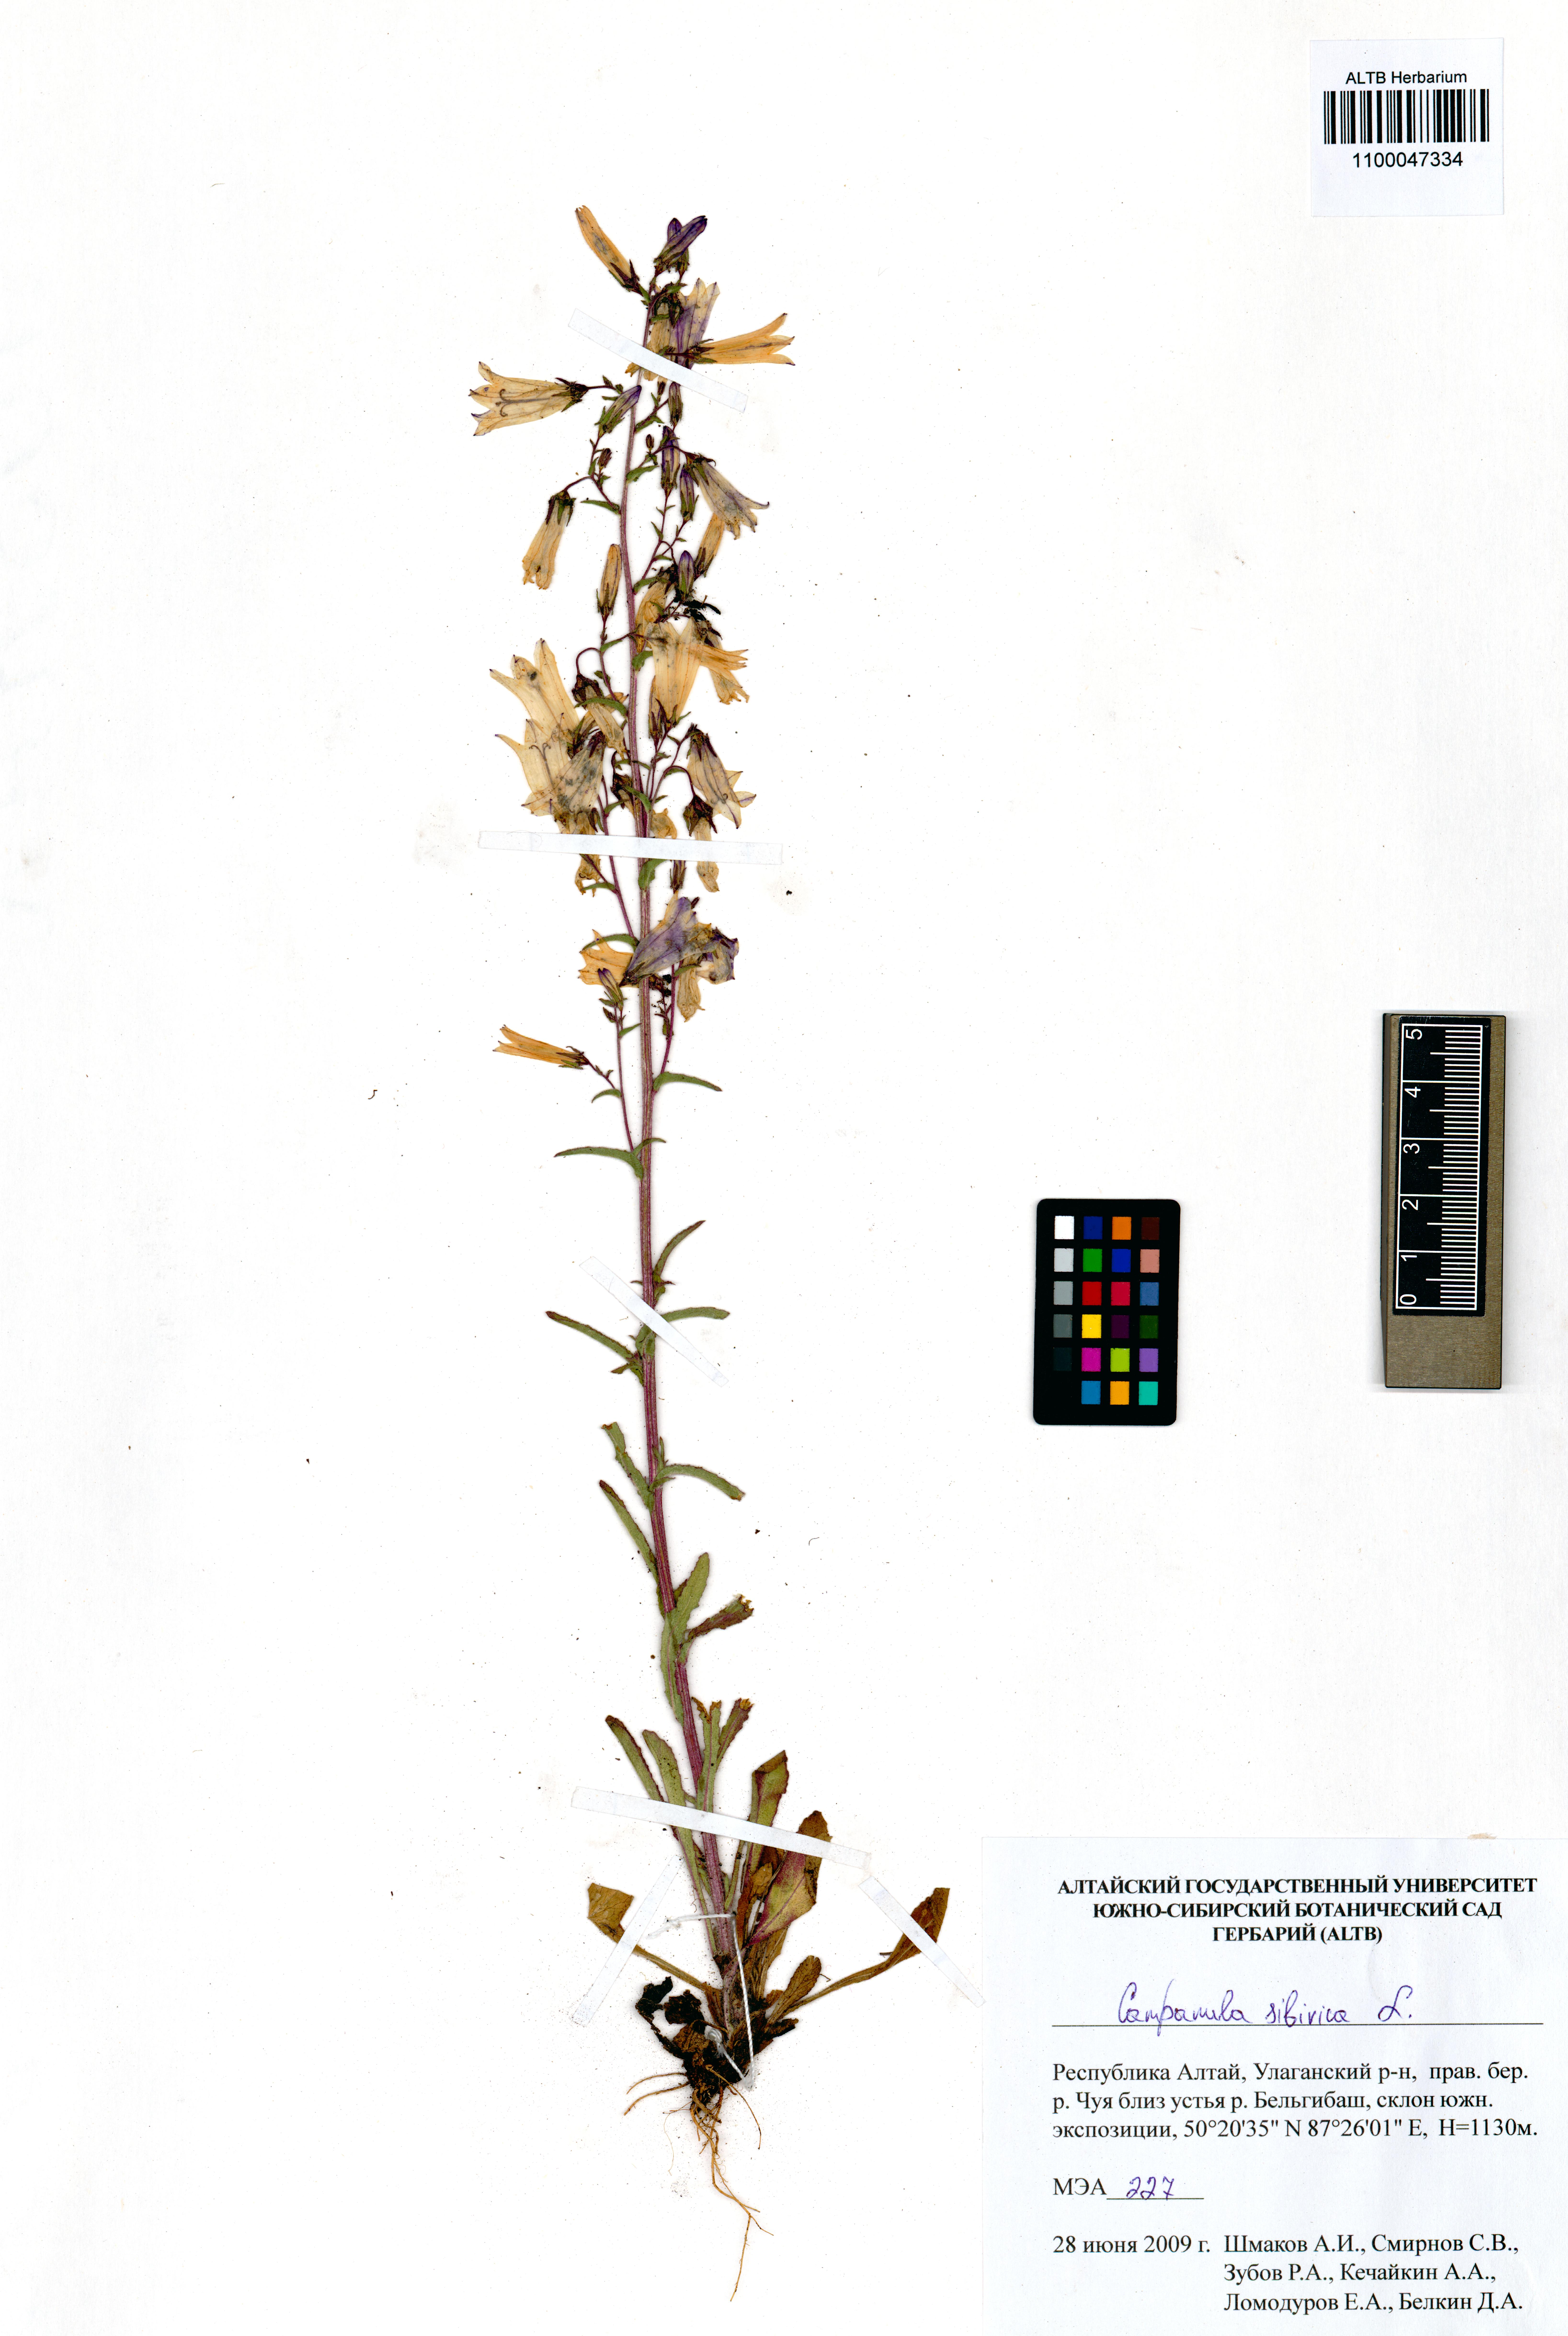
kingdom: Plantae
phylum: Tracheophyta
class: Magnoliopsida
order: Asterales
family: Campanulaceae
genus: Campanula
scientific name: Campanula sibirica
